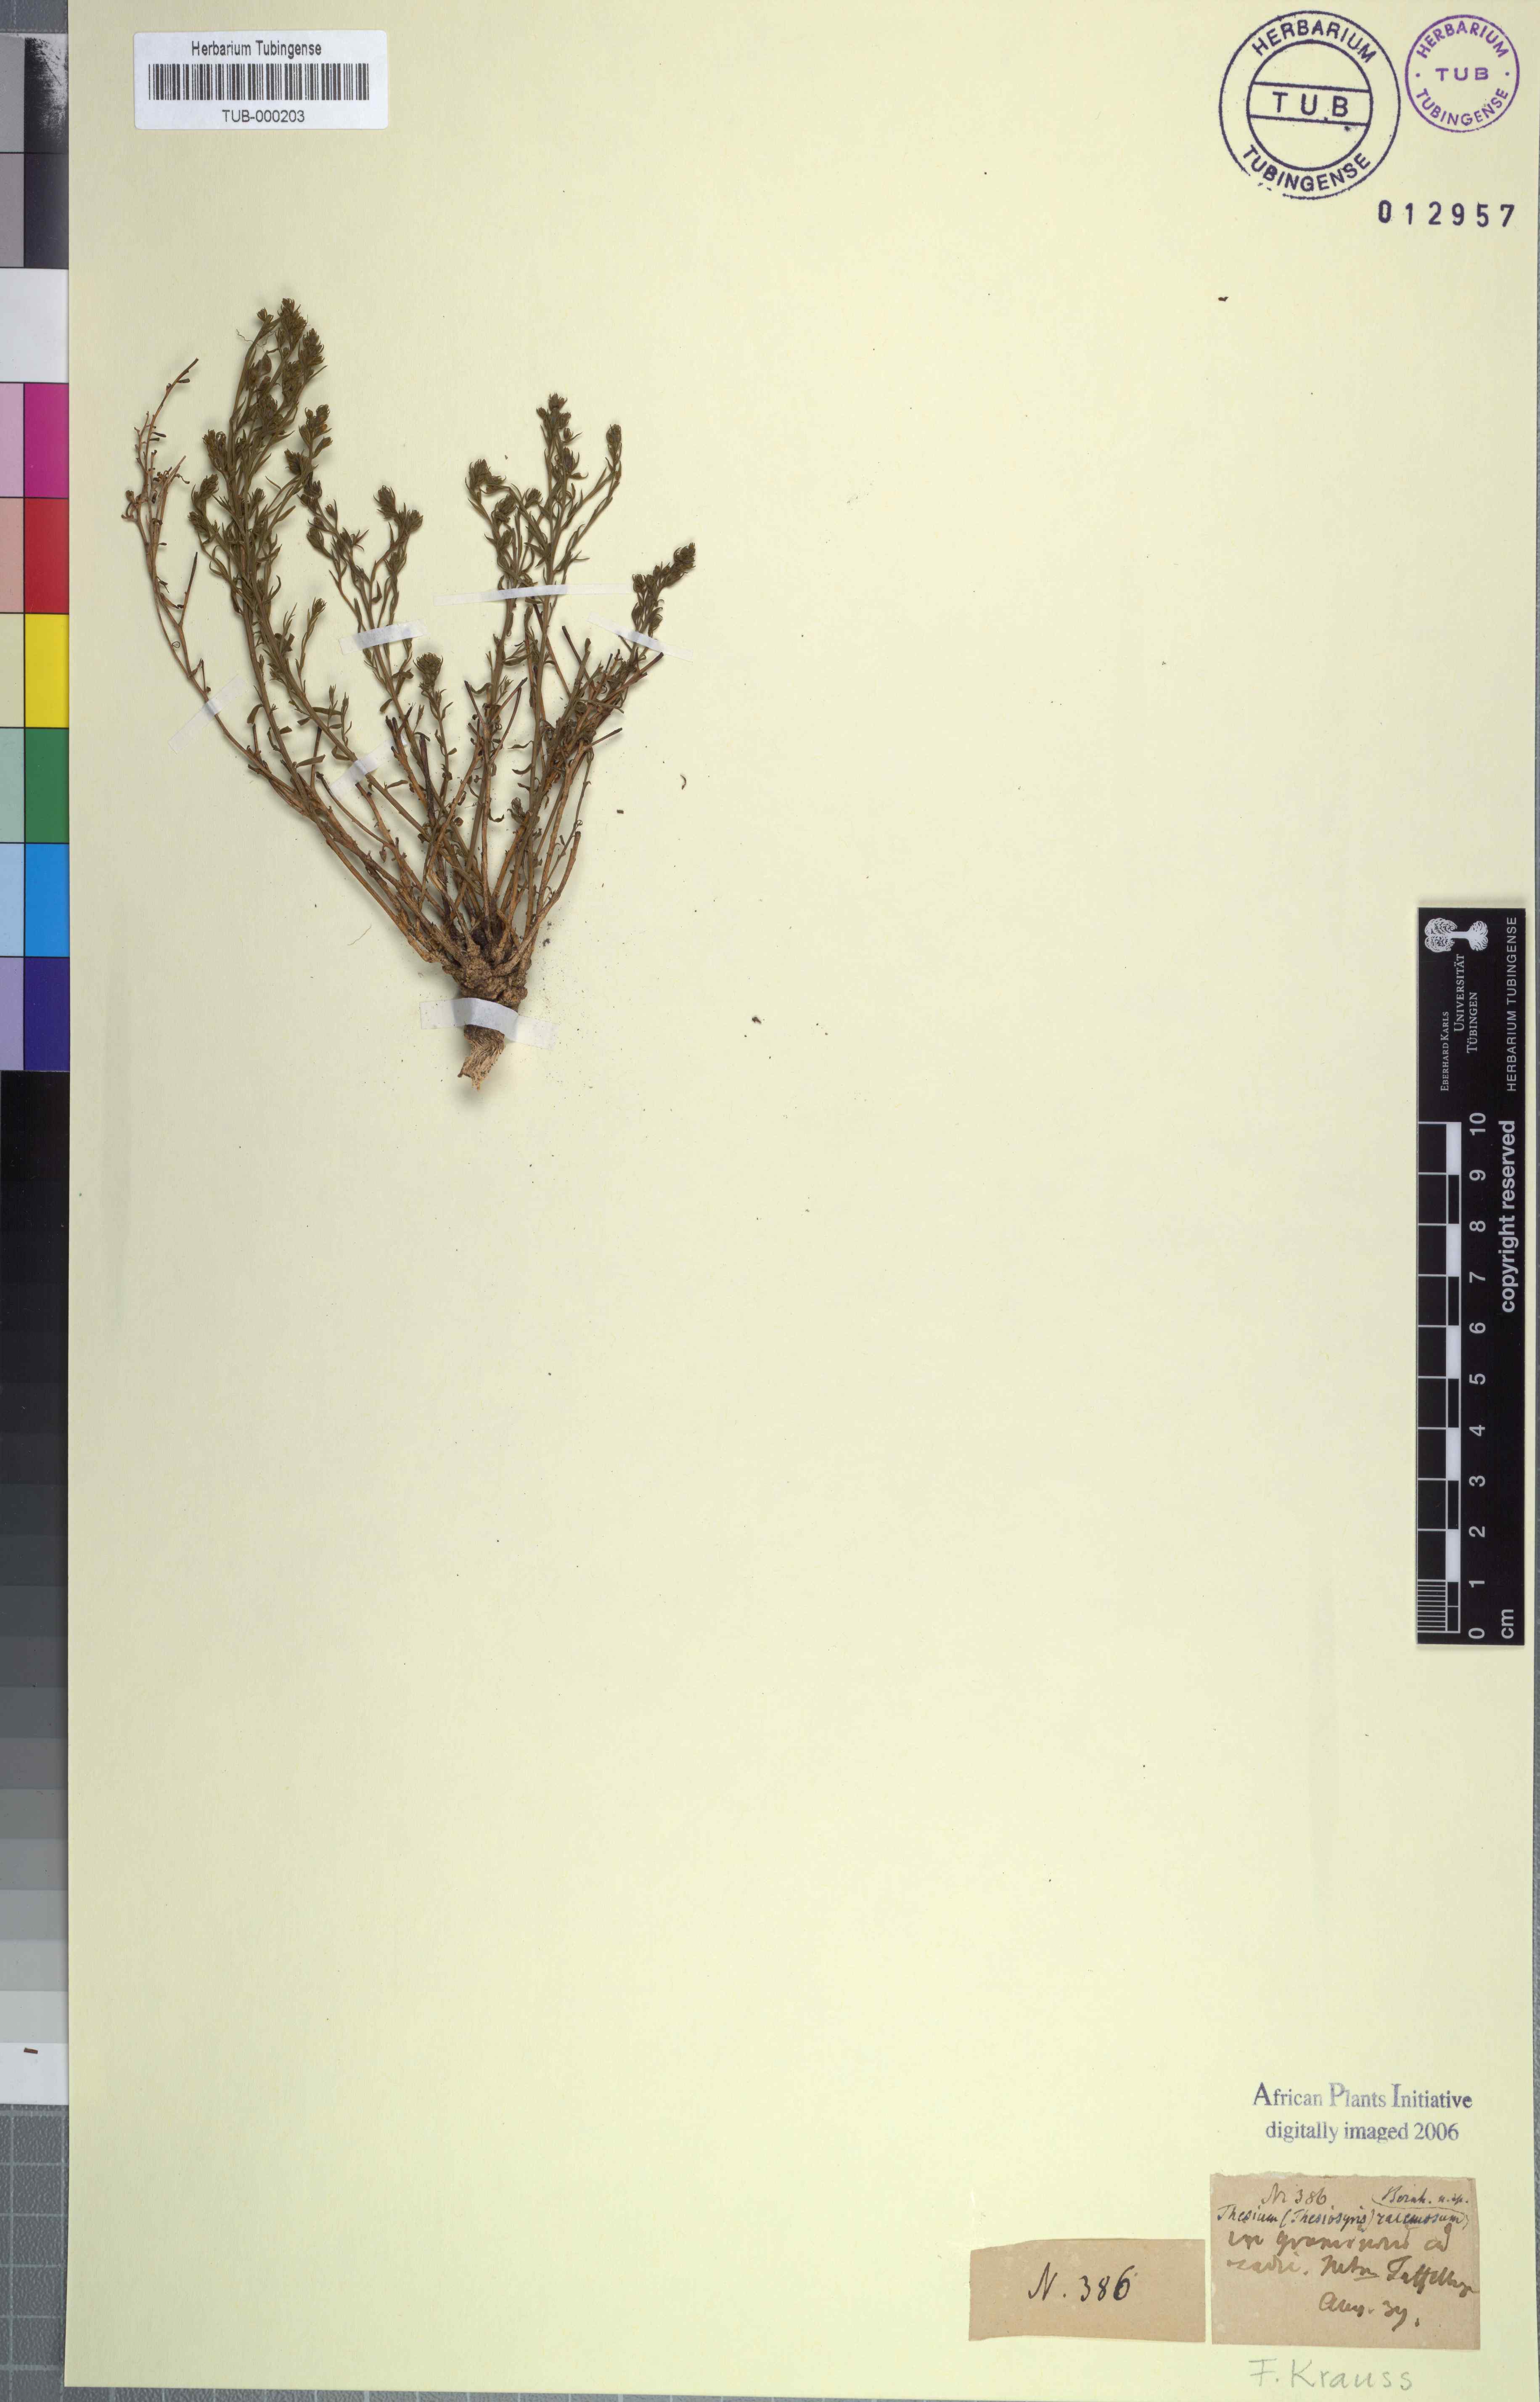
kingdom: Plantae
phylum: Tracheophyta
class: Magnoliopsida
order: Santalales
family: Thesiaceae
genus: Thesium
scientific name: Thesium racemosum
